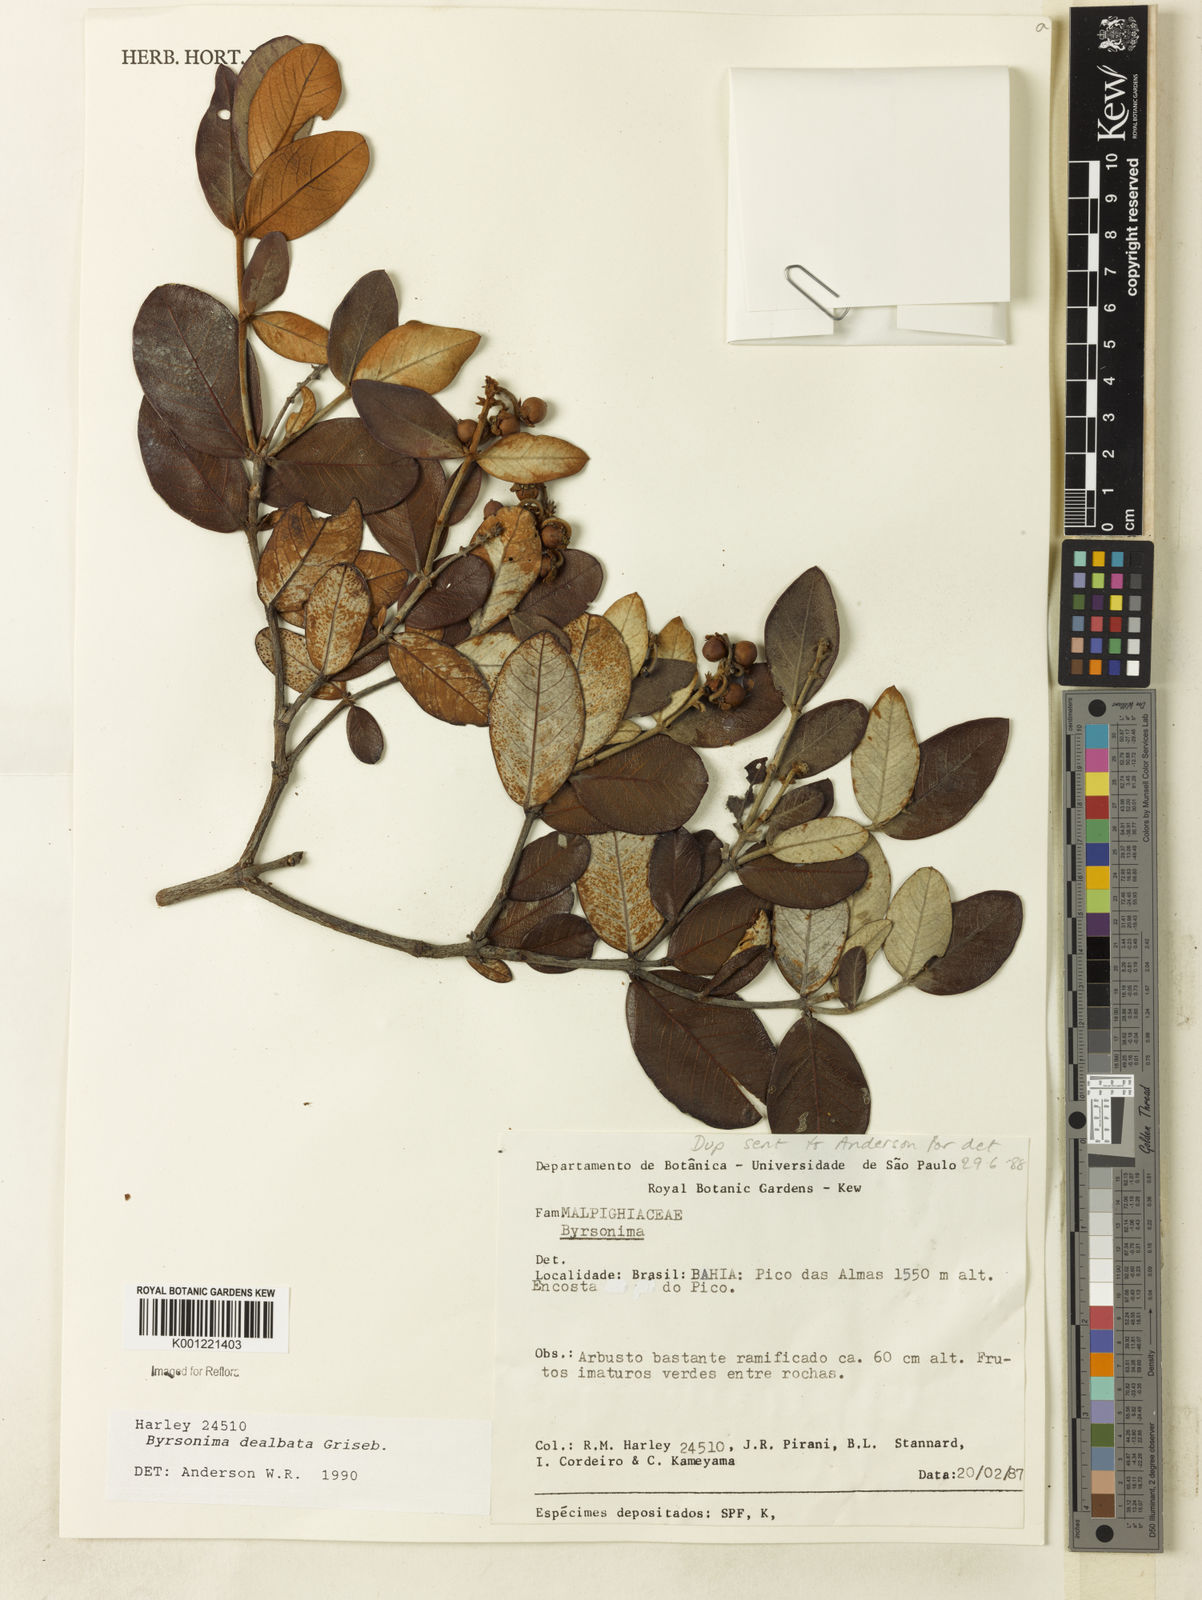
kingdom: Plantae
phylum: Tracheophyta
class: Magnoliopsida
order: Malpighiales
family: Malpighiaceae
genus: Byrsonima
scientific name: Byrsonima dealbata
